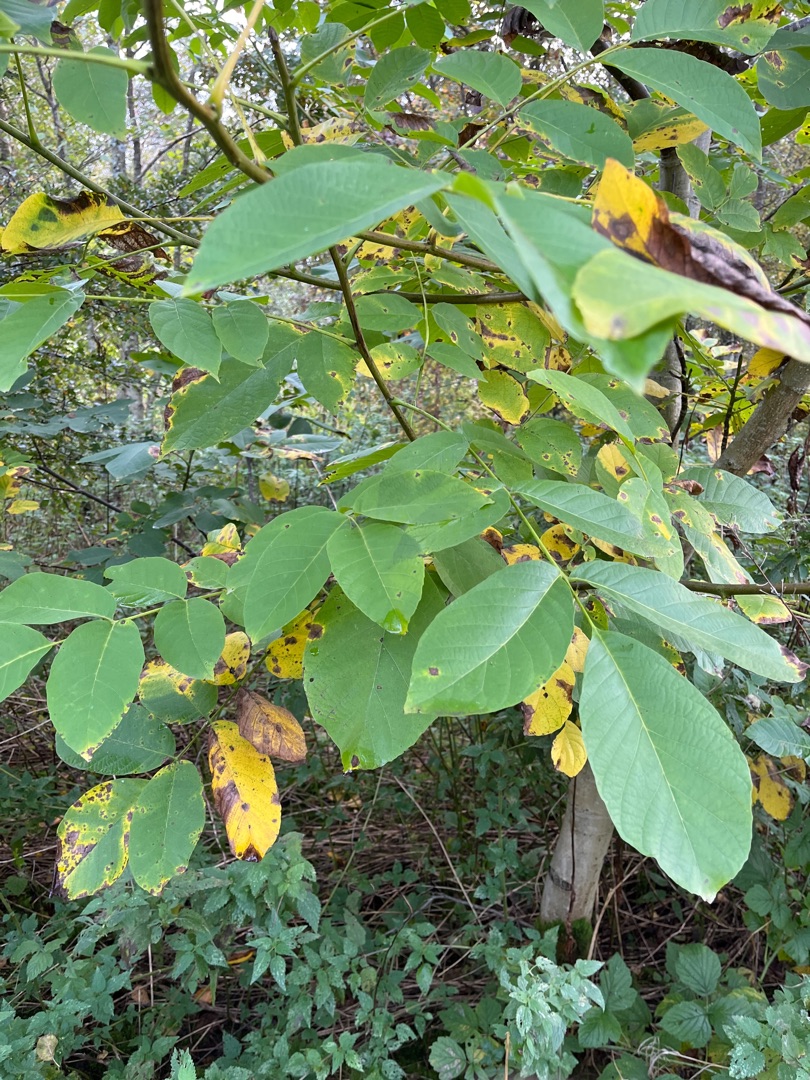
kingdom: Plantae
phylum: Tracheophyta
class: Magnoliopsida
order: Fagales
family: Juglandaceae
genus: Juglans
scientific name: Juglans regia
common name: Almindelig valnød
